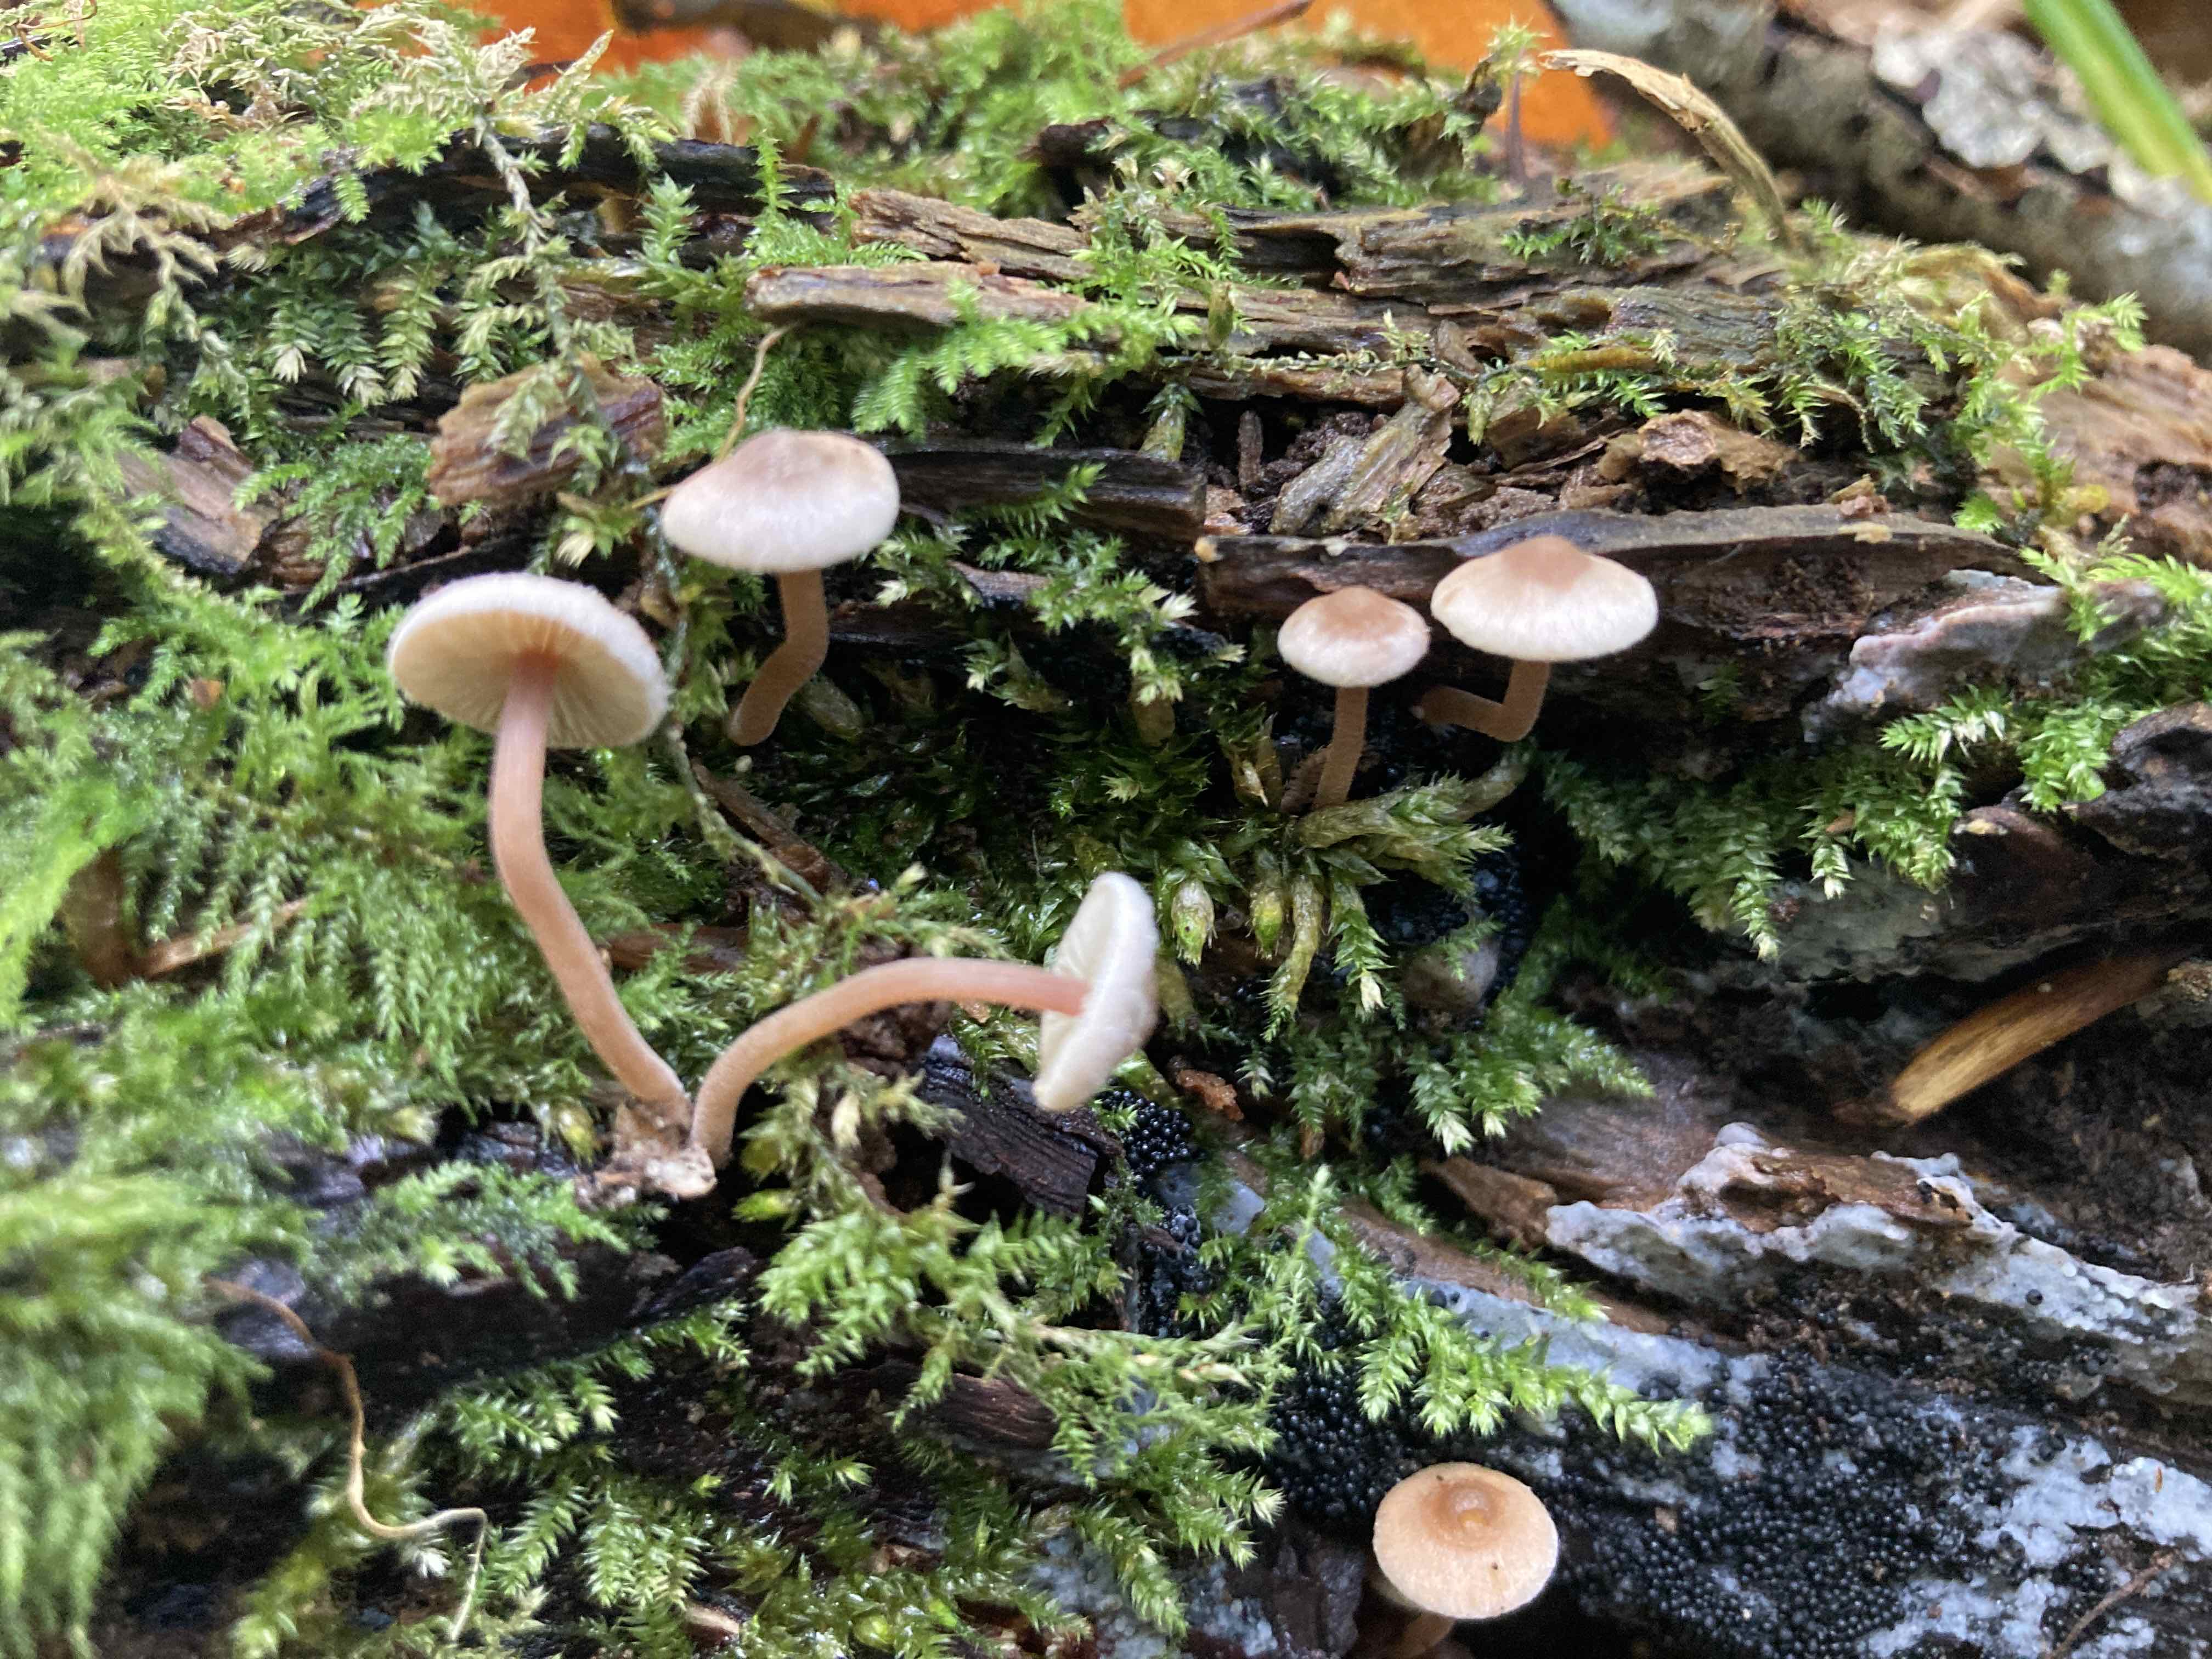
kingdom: Fungi
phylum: Basidiomycota
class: Agaricomycetes
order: Agaricales
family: Inocybaceae
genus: Inocybe
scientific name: Inocybe petiginosa
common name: liden trævlhat
